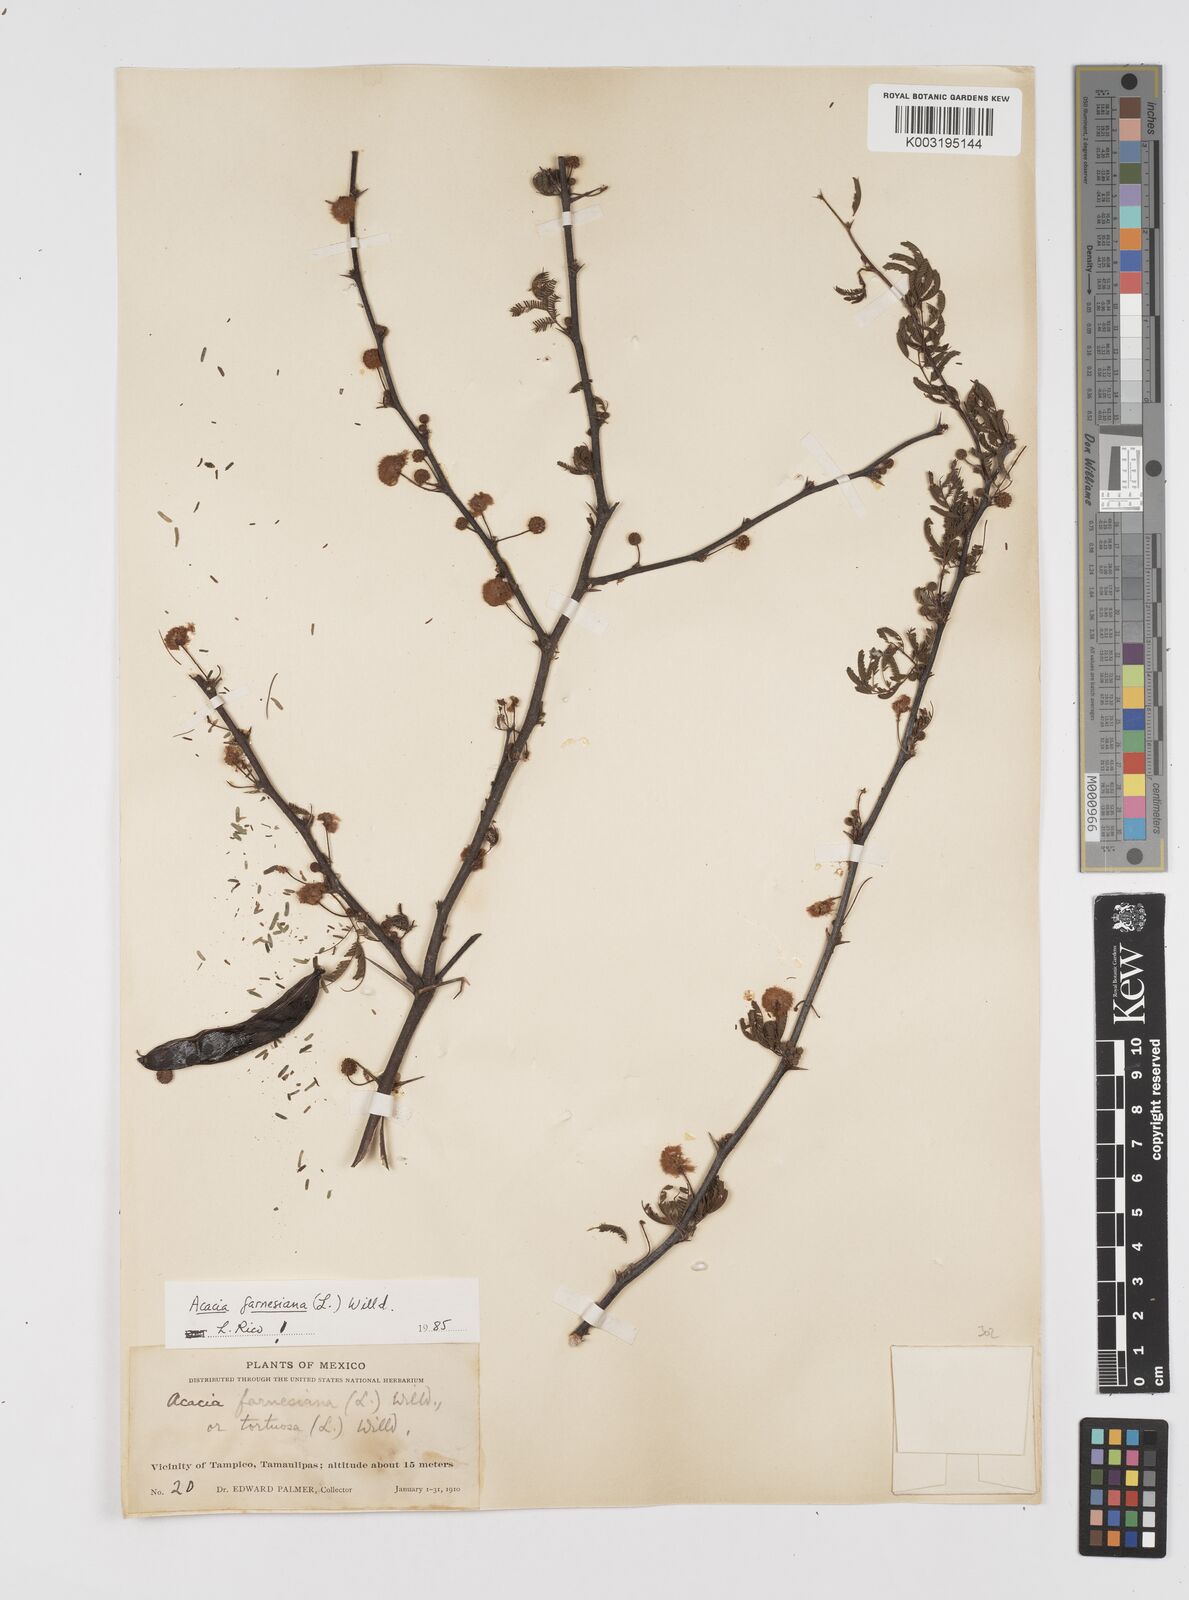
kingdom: Plantae
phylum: Tracheophyta
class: Magnoliopsida
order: Fabales
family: Fabaceae
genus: Vachellia
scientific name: Vachellia farnesiana
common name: Sweet acacia
